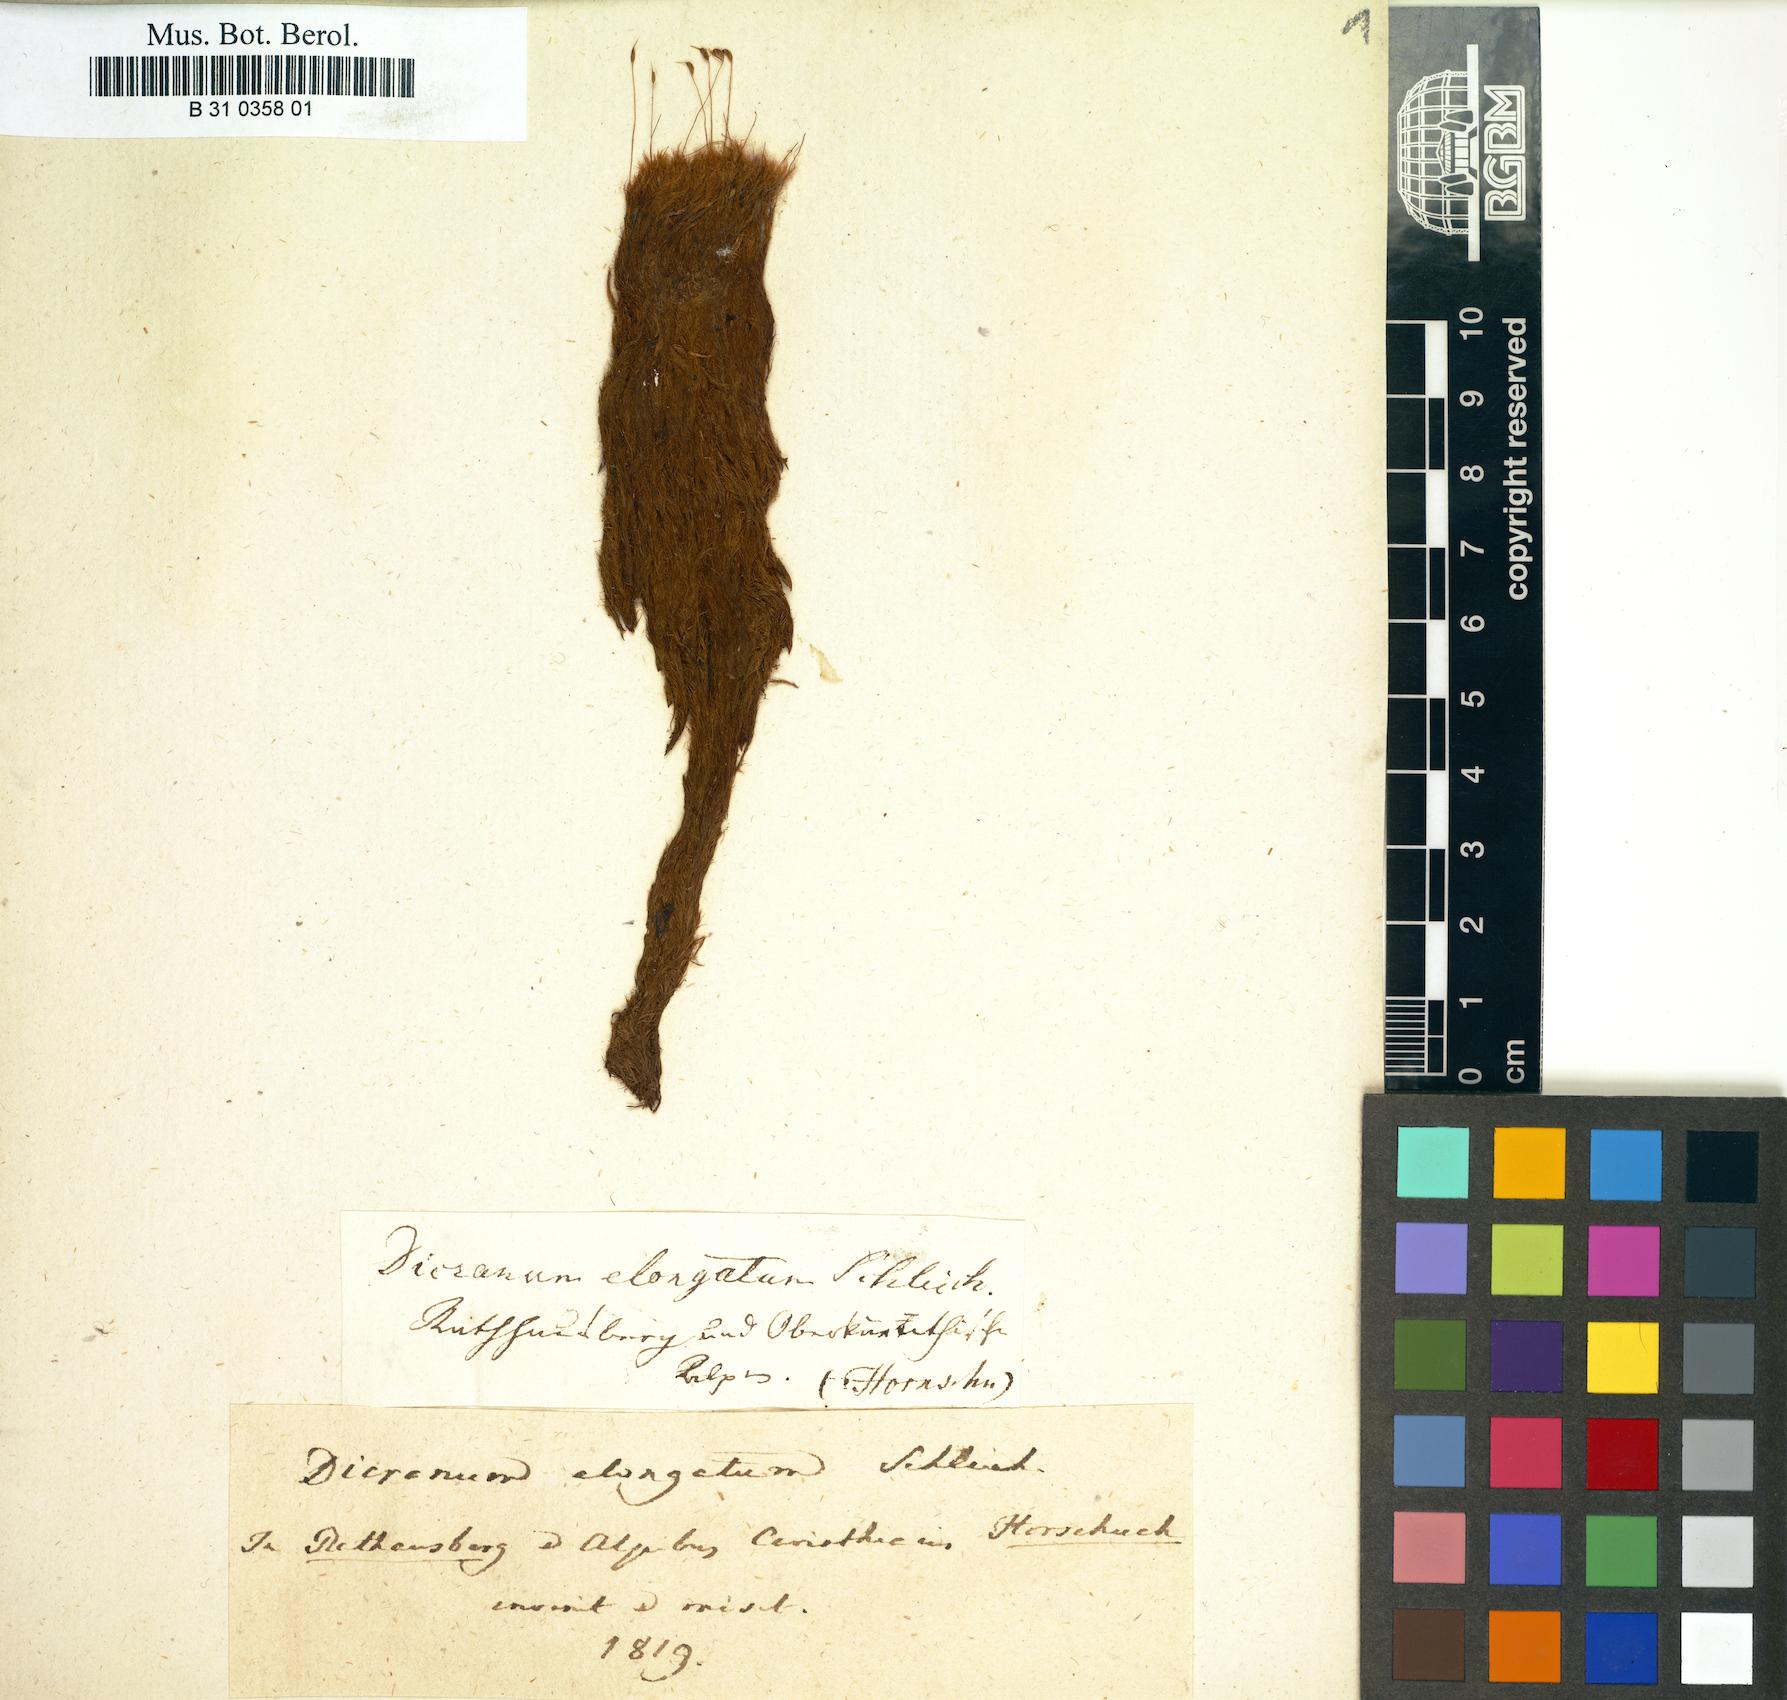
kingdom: Plantae
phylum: Bryophyta
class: Bryopsida
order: Dicranales
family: Dicranaceae
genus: Dicranum
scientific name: Dicranum elongatum
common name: Long-forked broom moss
